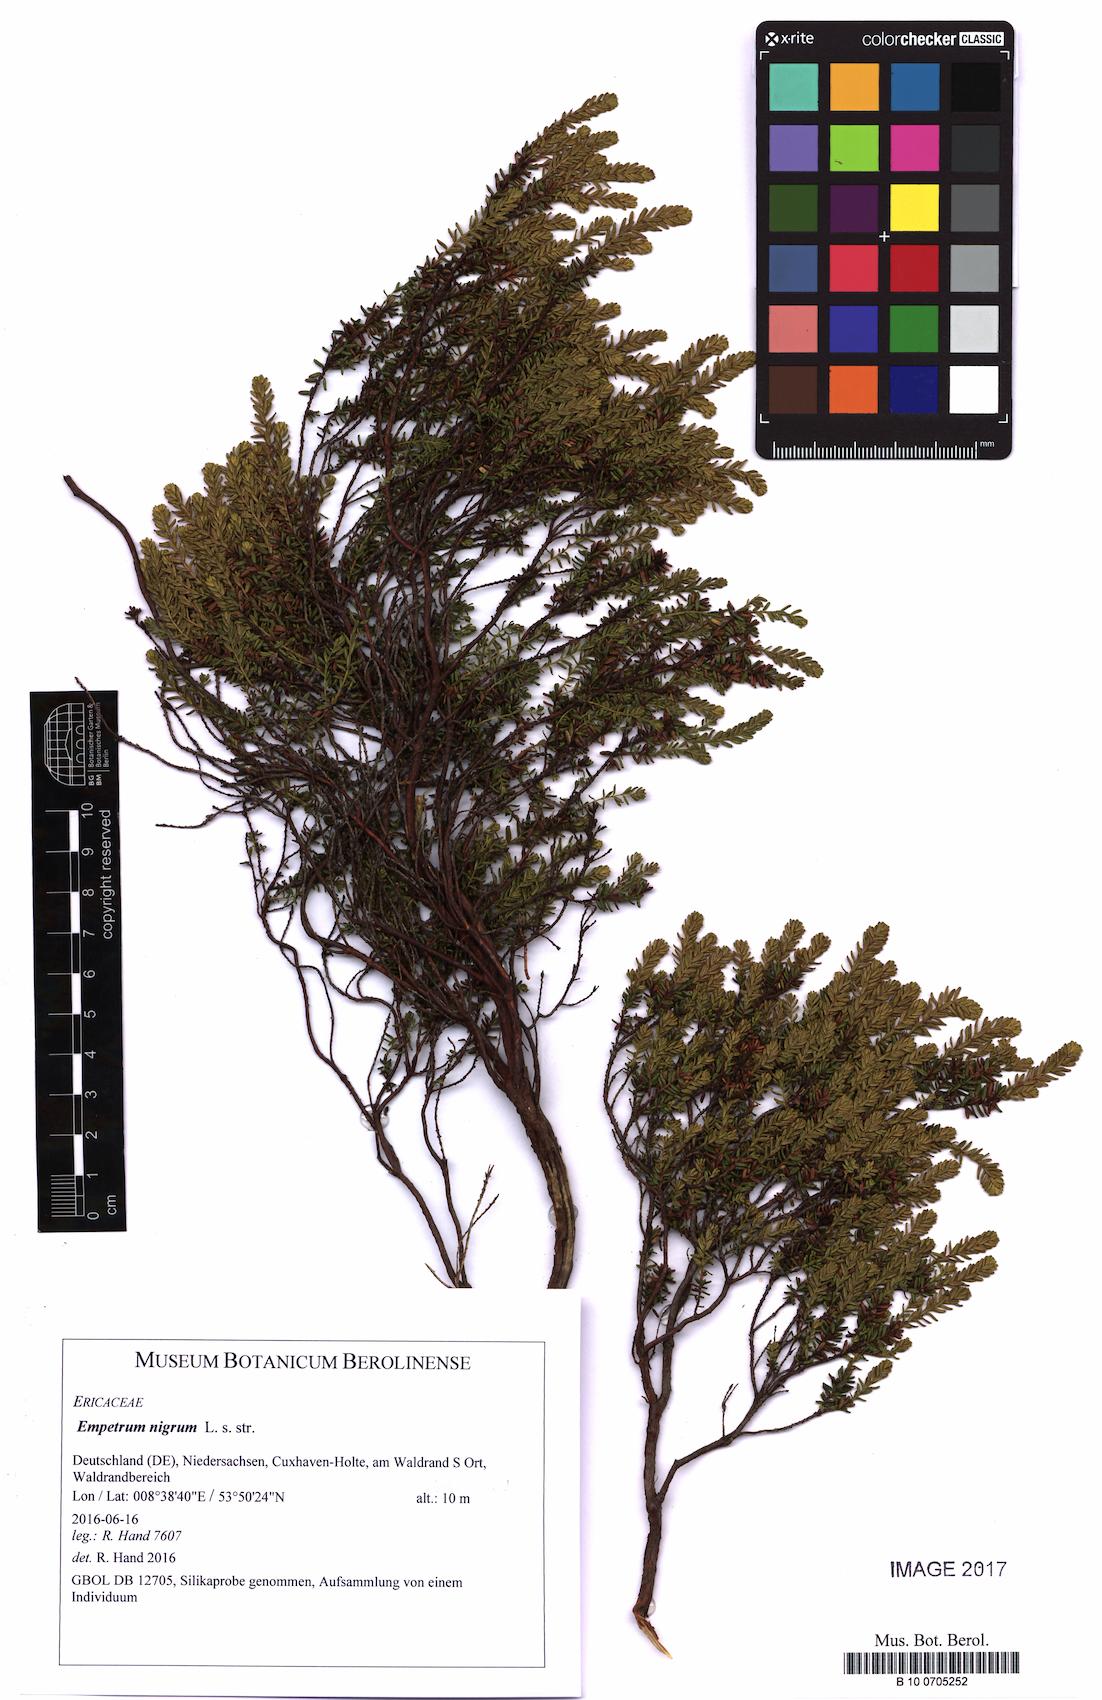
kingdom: Plantae
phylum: Tracheophyta
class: Magnoliopsida
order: Ericales
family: Ericaceae
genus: Empetrum
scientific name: Empetrum nigrum
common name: Black crowberry
